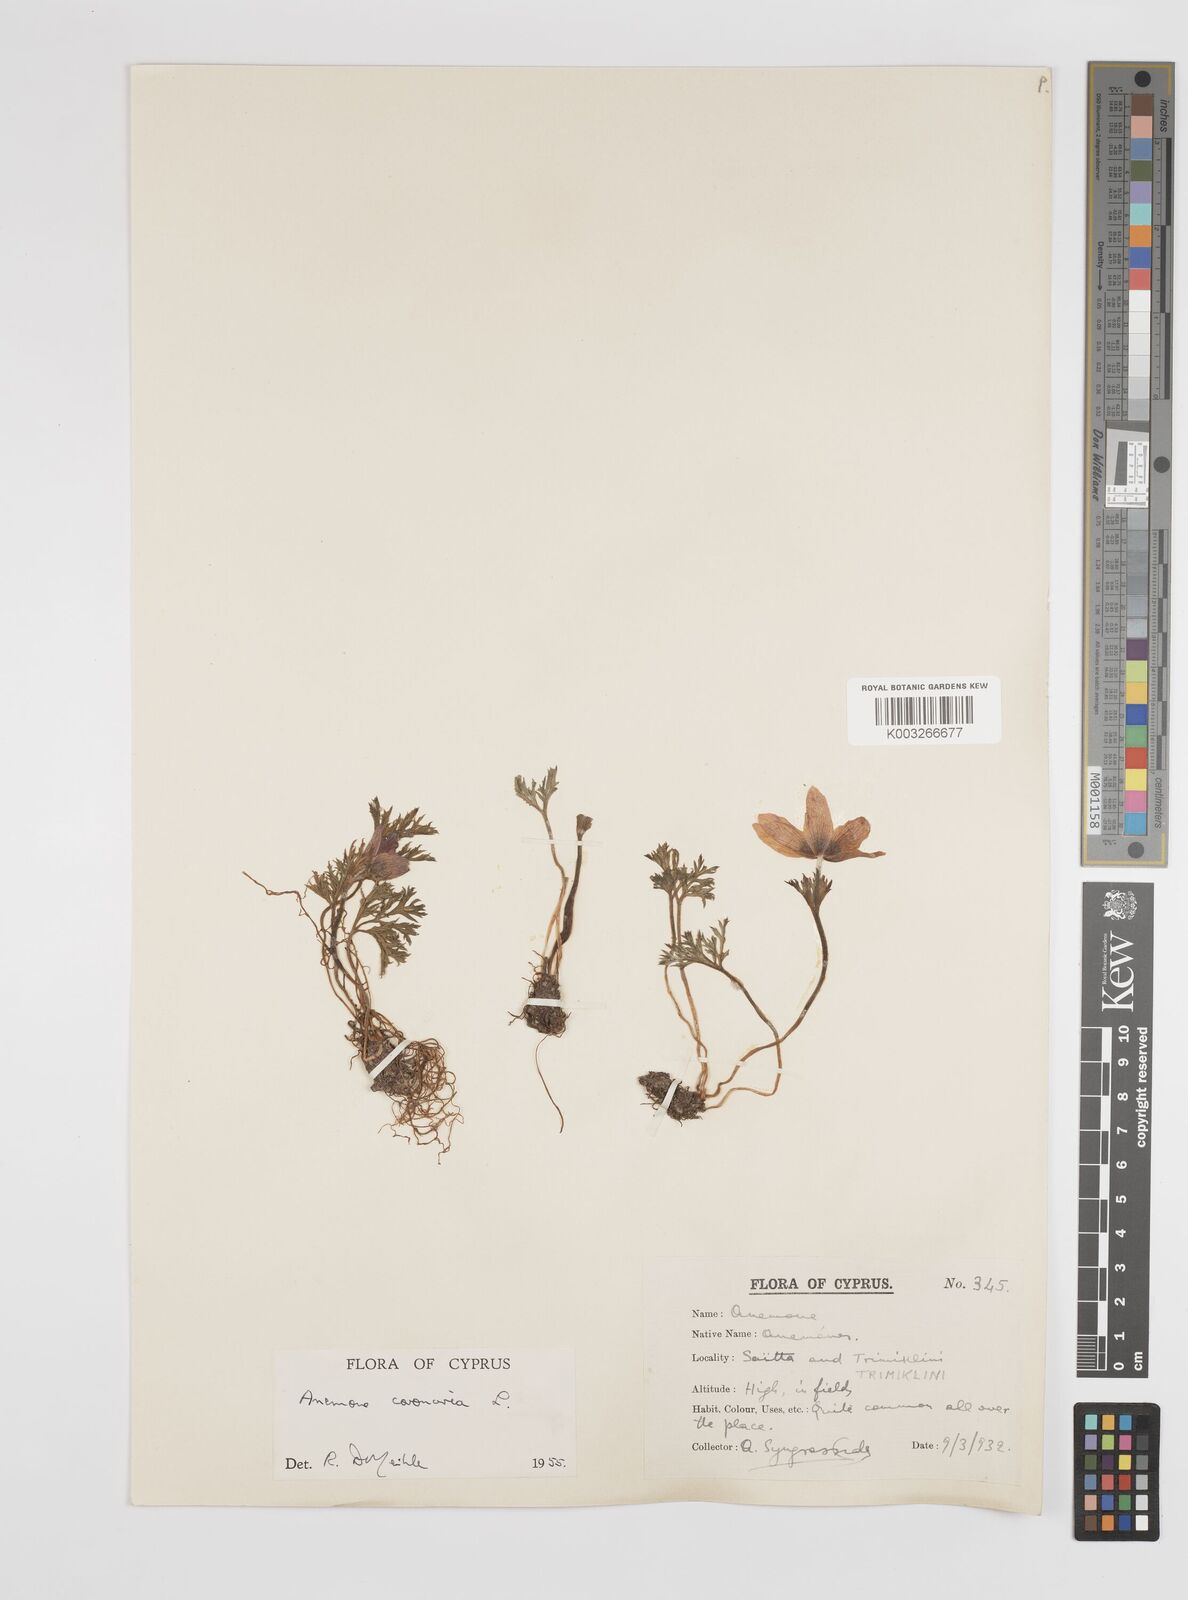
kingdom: Plantae
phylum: Tracheophyta
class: Magnoliopsida
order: Ranunculales
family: Ranunculaceae
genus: Anemone
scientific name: Anemone coronaria
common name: Poppy anemone
